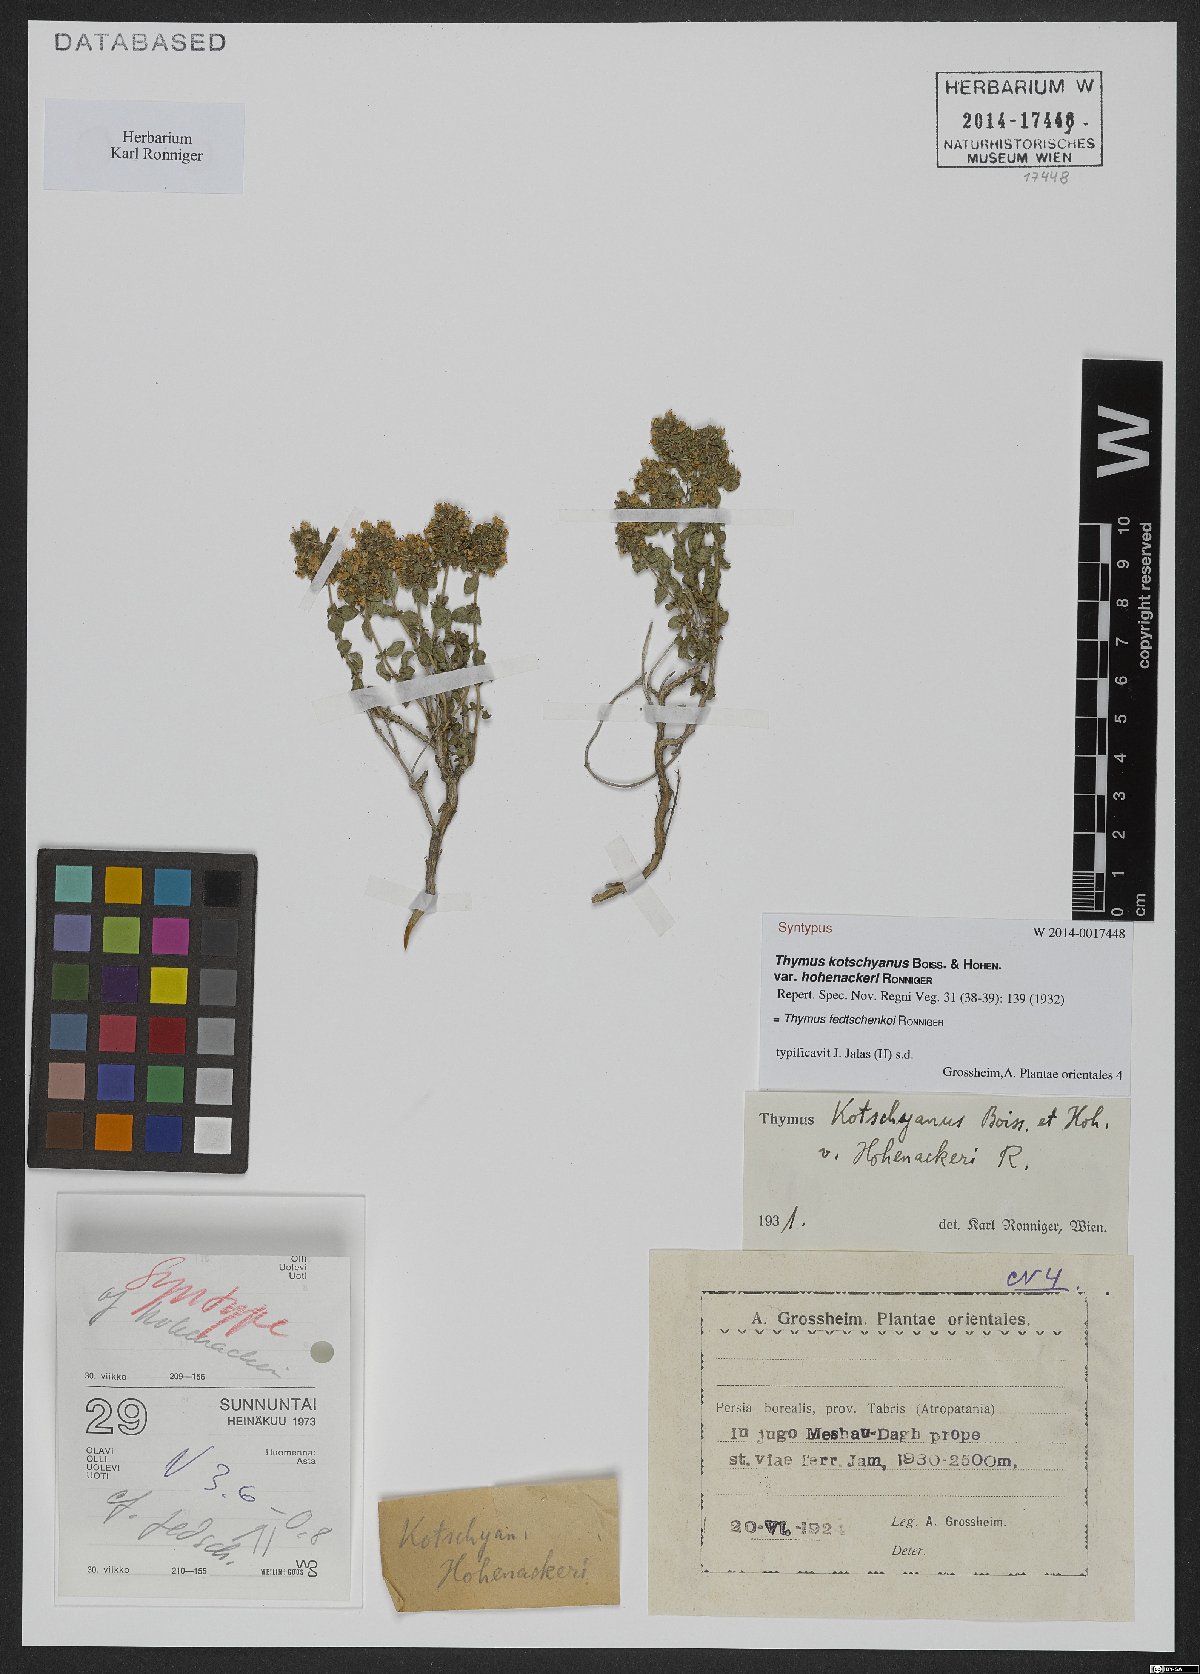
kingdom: Plantae
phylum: Tracheophyta
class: Magnoliopsida
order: Lamiales
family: Lamiaceae
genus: Thymus
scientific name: Thymus fedtschenkoi
